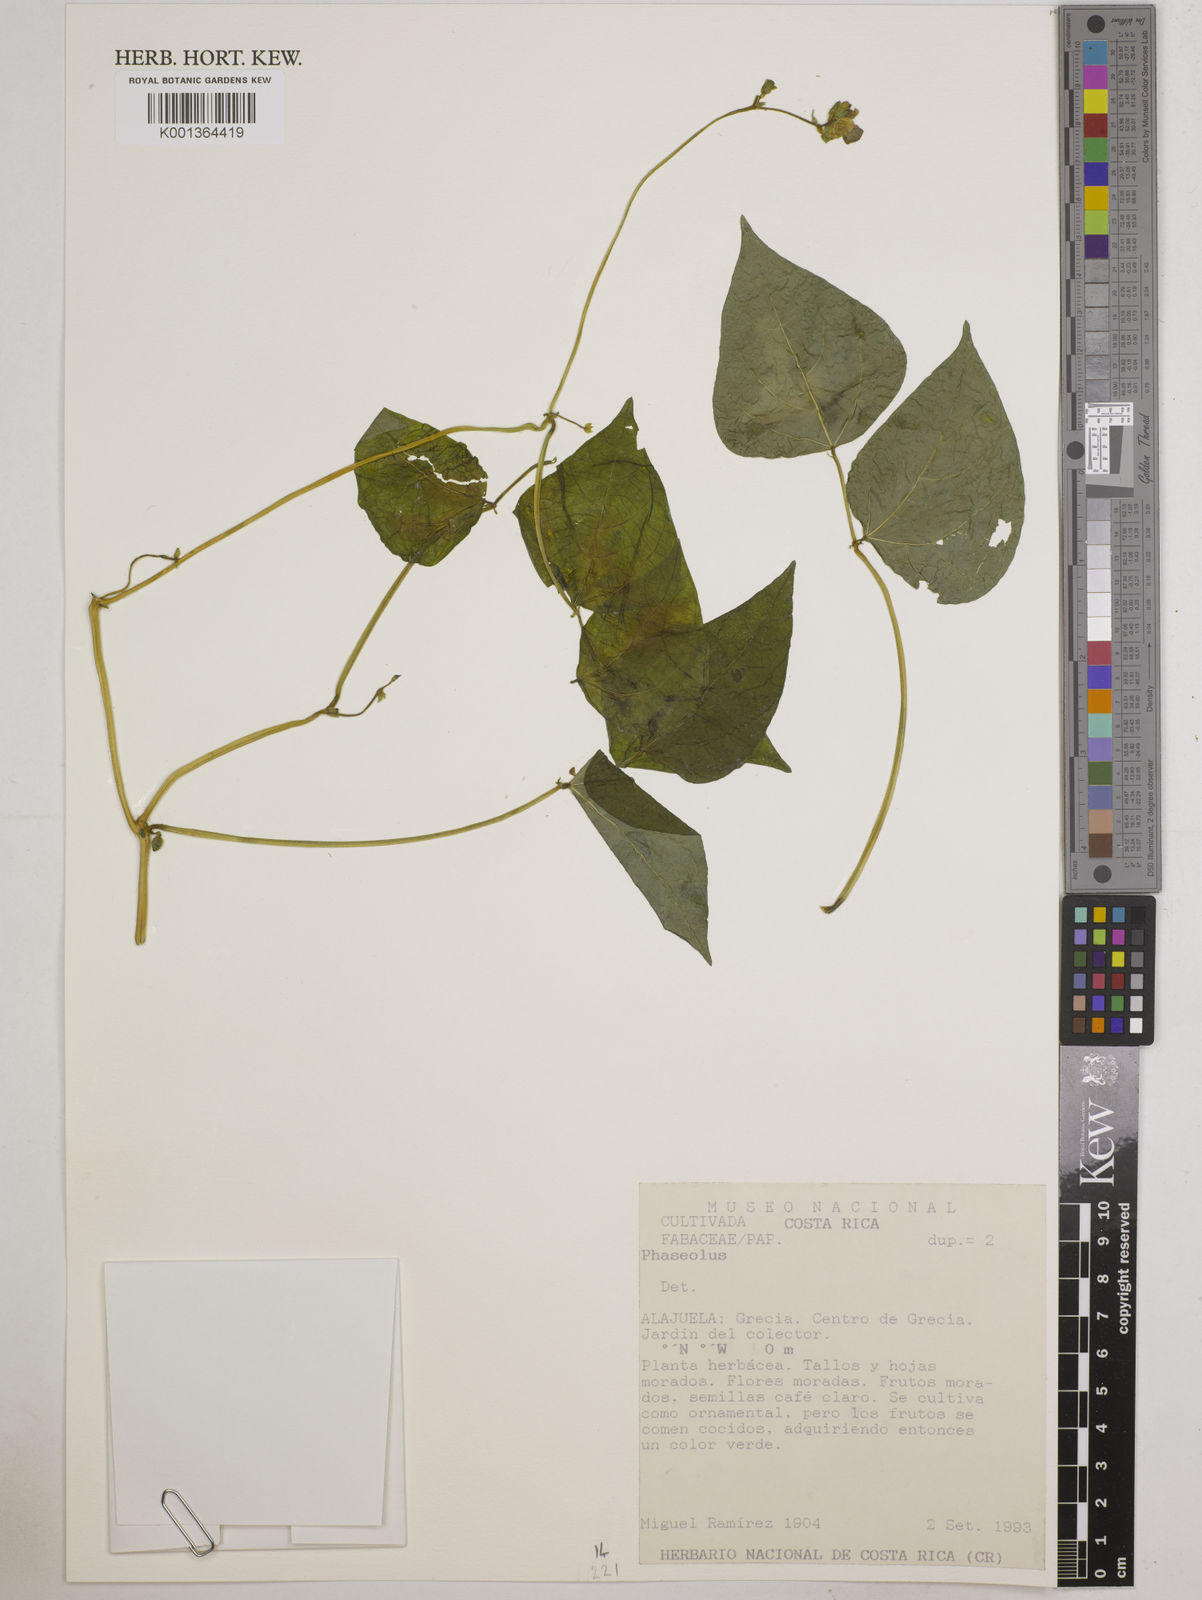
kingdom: Plantae
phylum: Tracheophyta
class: Magnoliopsida
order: Fabales
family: Fabaceae
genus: Phaseolus
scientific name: Phaseolus
